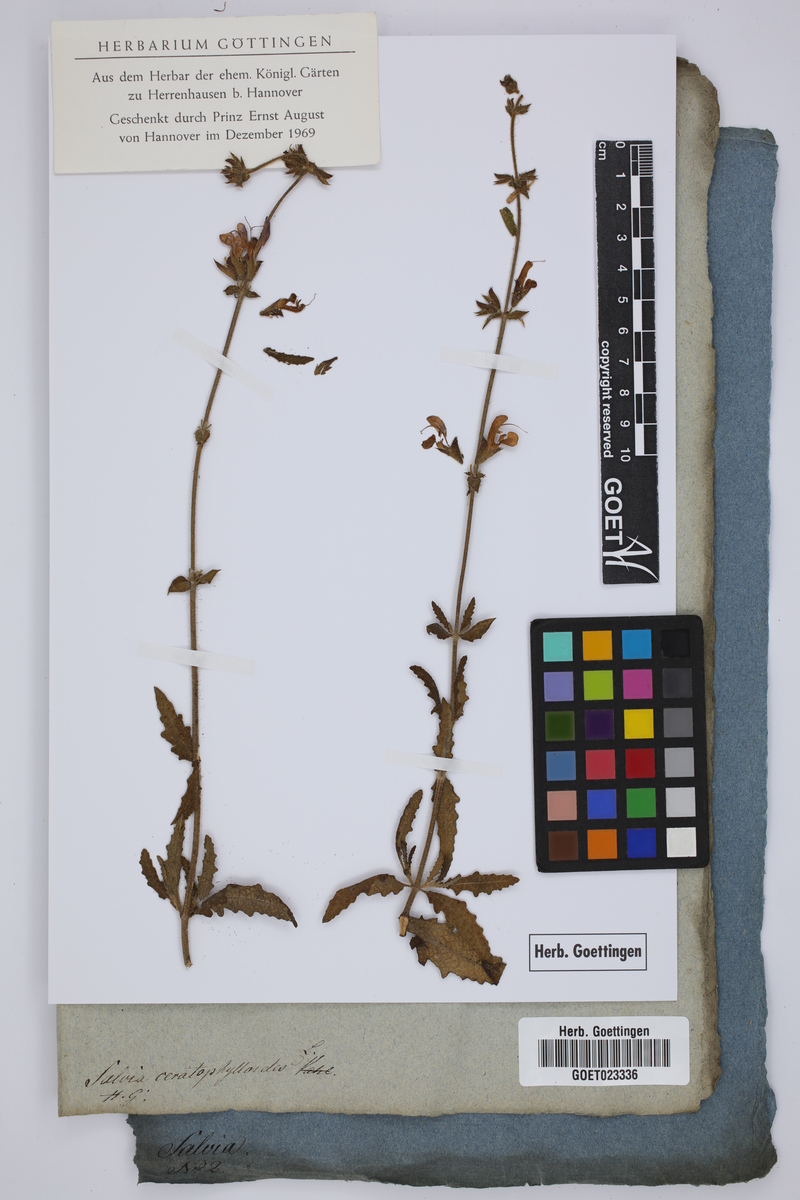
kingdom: Plantae
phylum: Tracheophyta
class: Magnoliopsida
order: Lamiales
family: Lamiaceae
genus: Salvia
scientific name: Salvia pratensis
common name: Meadow sage
